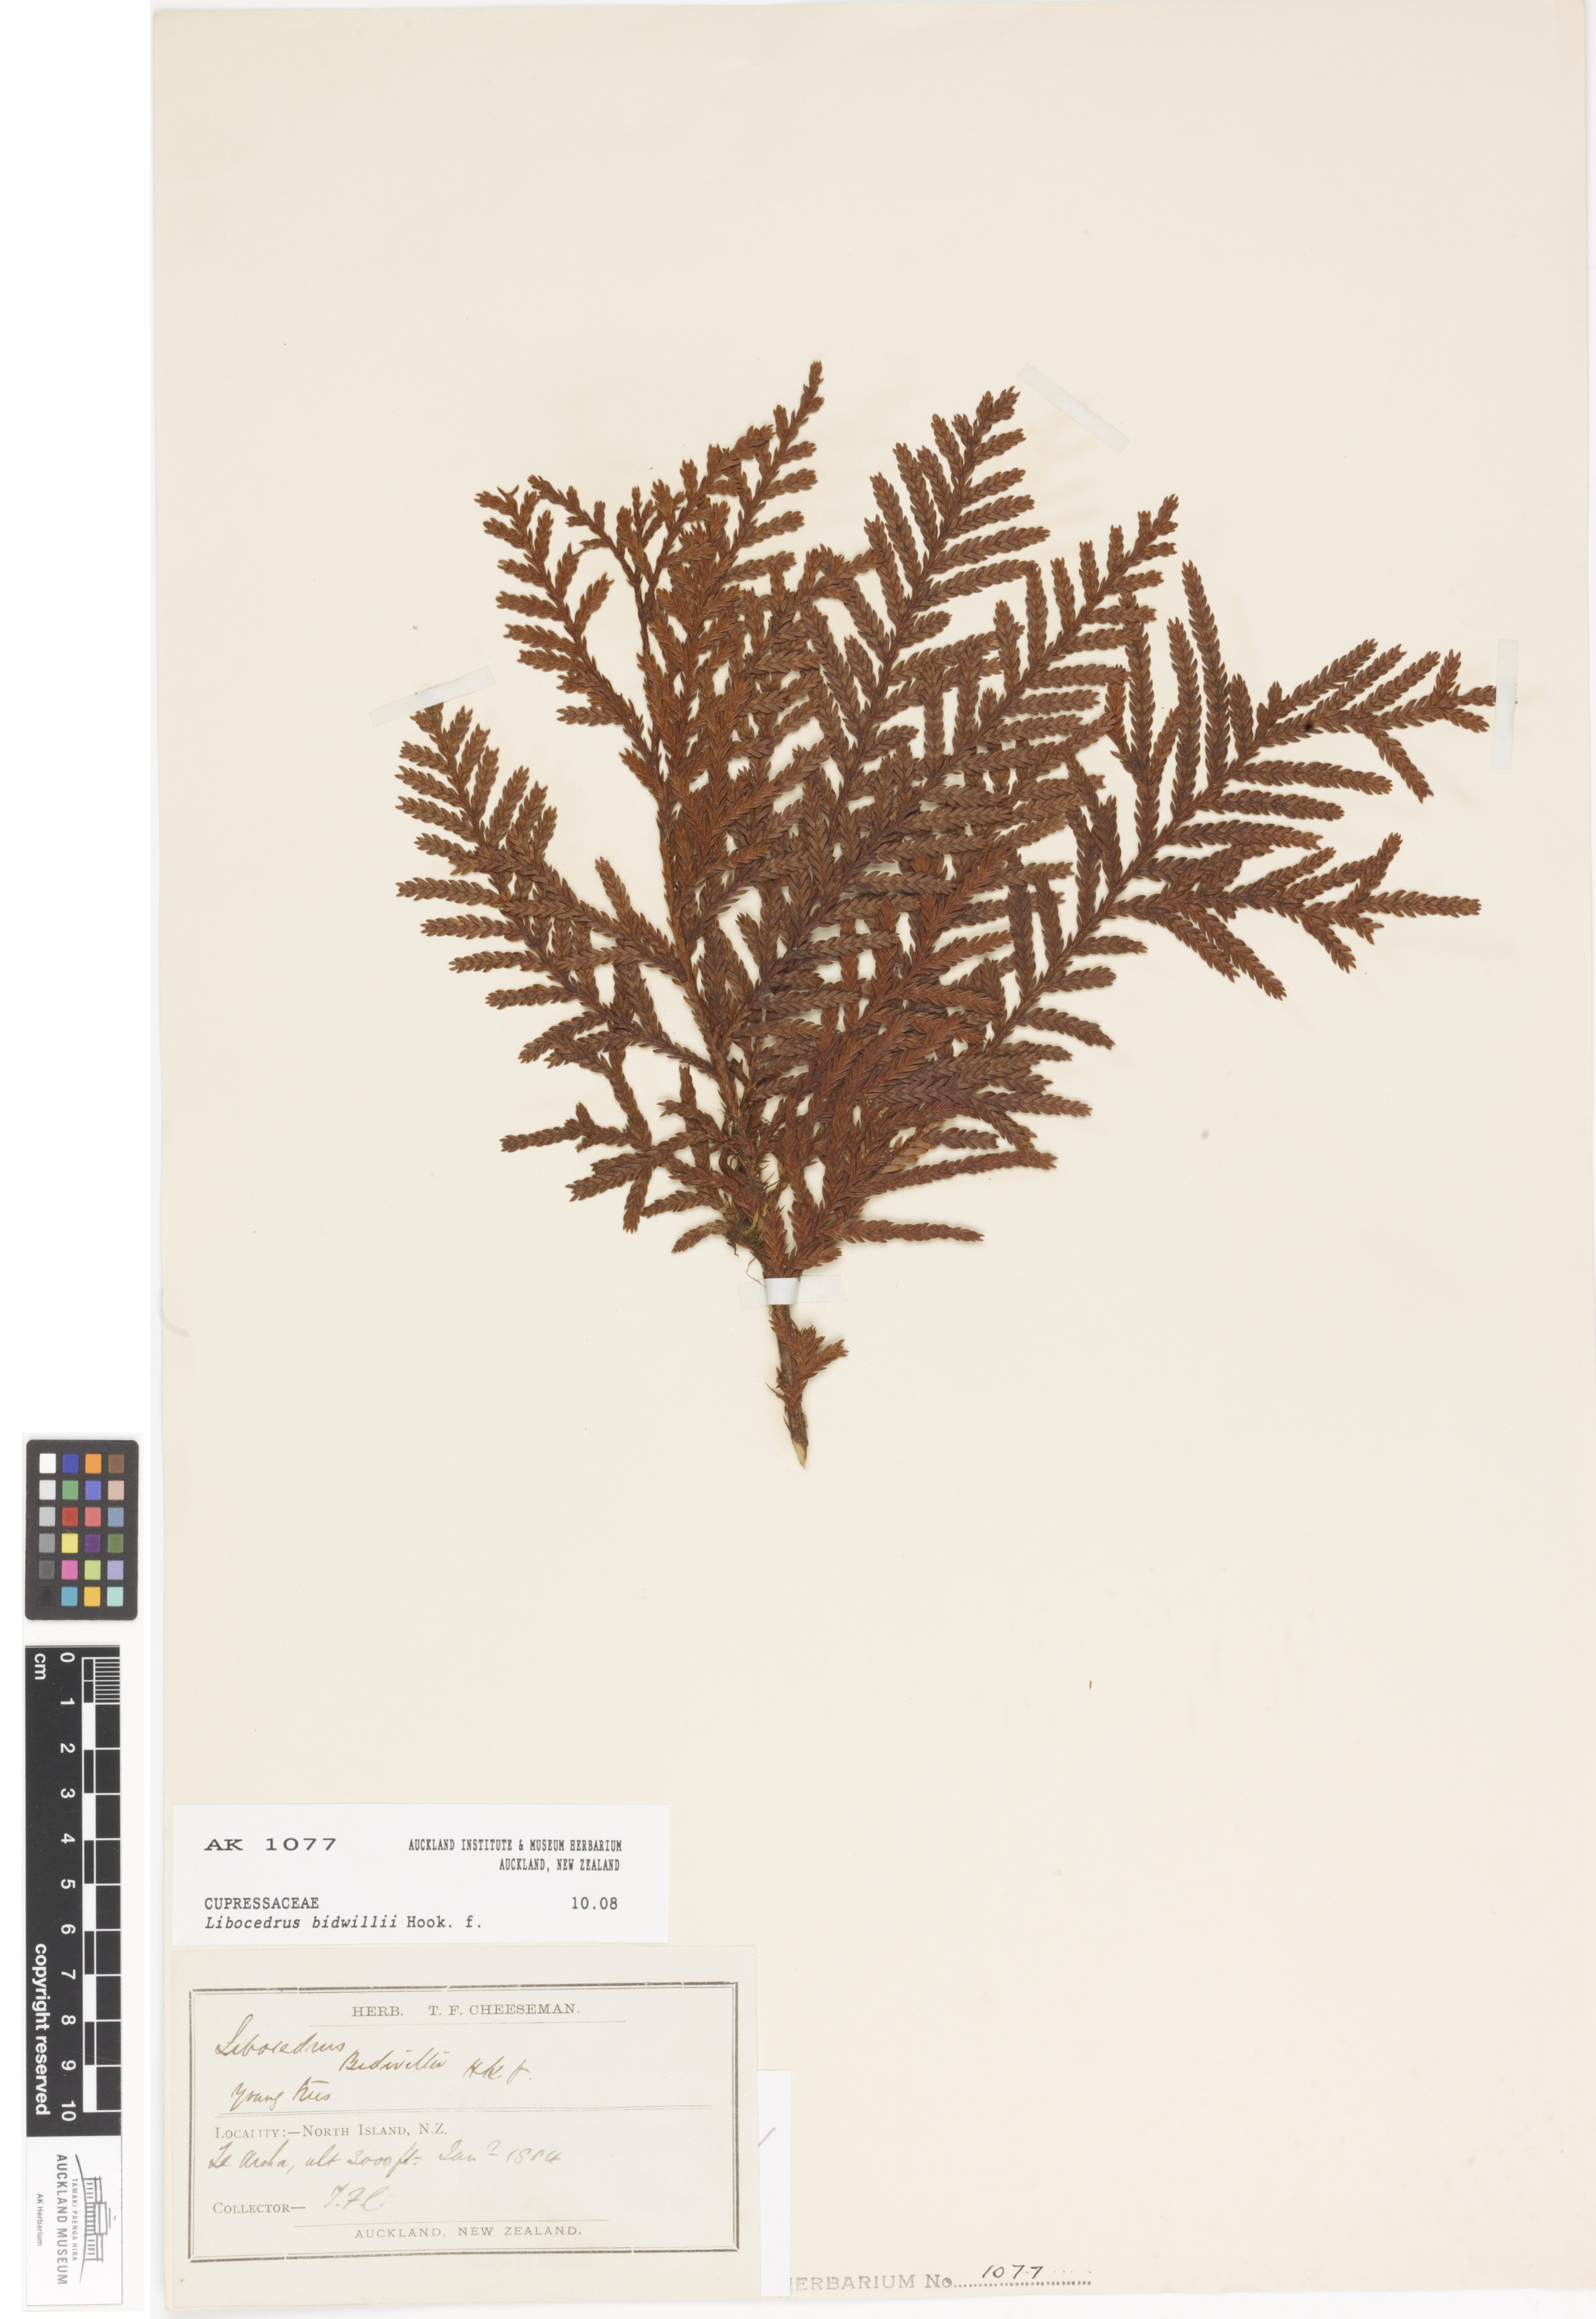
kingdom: Plantae
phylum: Tracheophyta
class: Pinopsida
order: Pinales
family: Cupressaceae
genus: Libocedrus
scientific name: Libocedrus bidwillii
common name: Cedar
